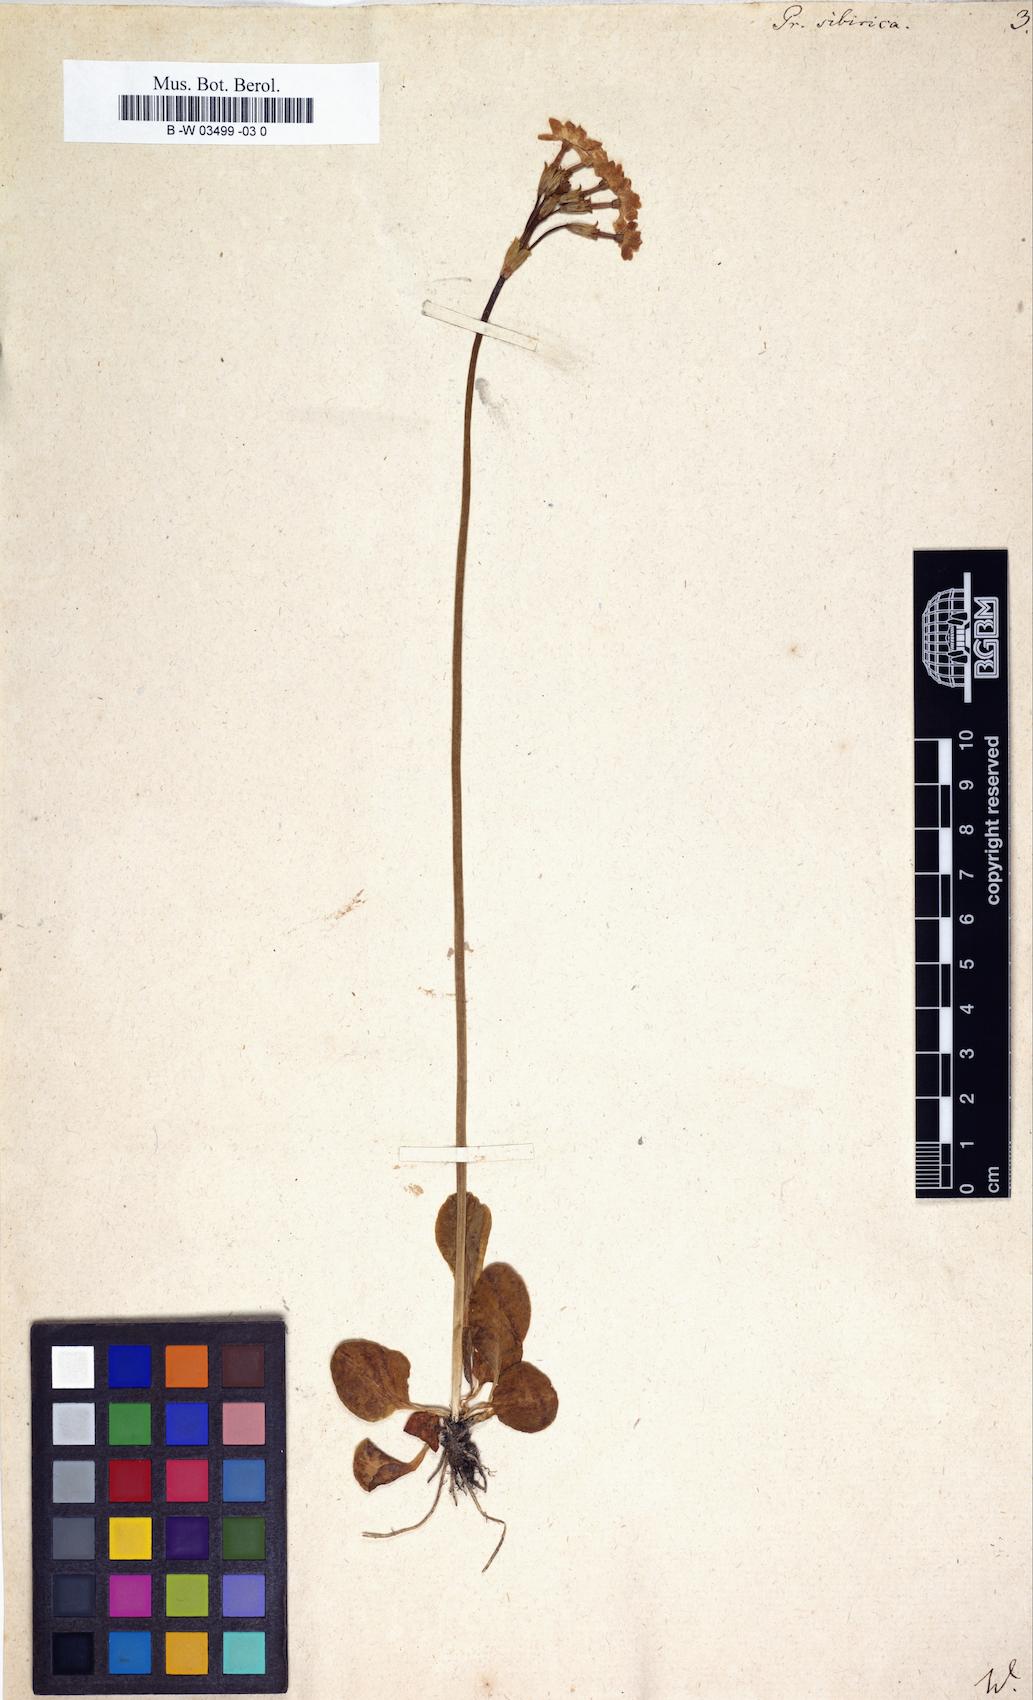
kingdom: Plantae
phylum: Tracheophyta
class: Magnoliopsida
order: Ericales
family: Primulaceae
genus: Primula
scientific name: Primula nutans
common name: Siberian primrose
